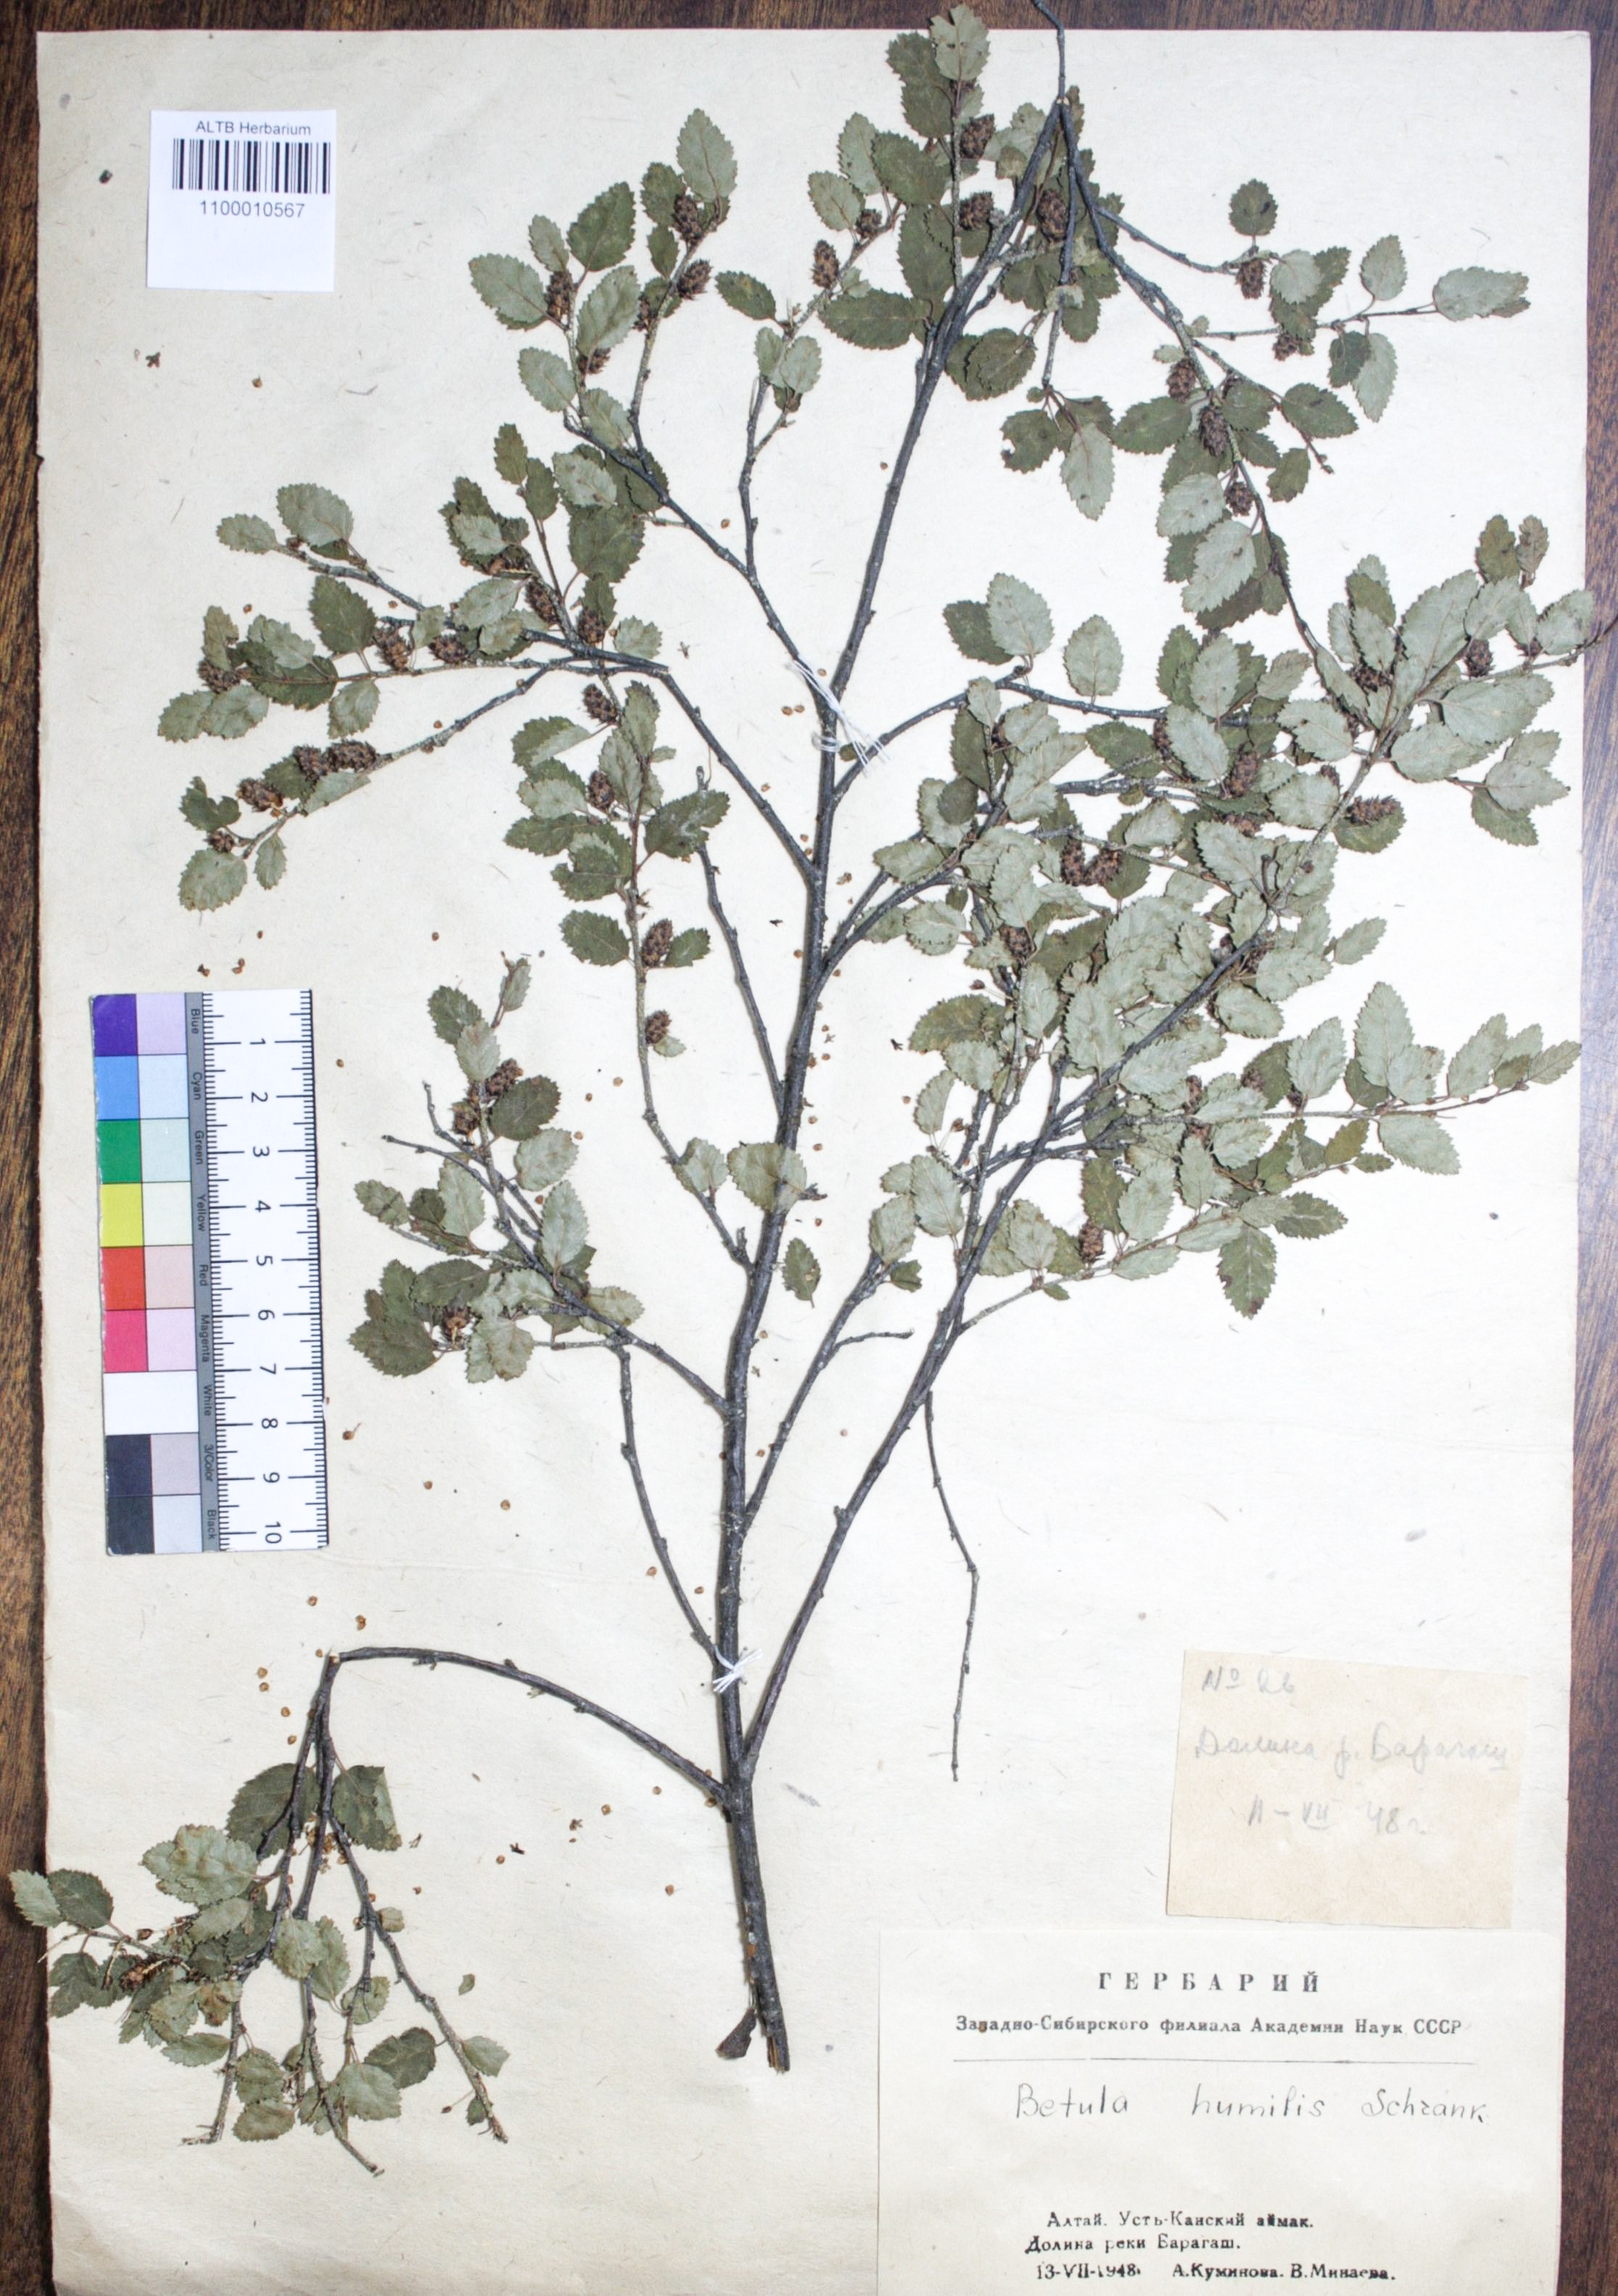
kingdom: Plantae
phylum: Tracheophyta
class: Magnoliopsida
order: Fagales
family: Betulaceae
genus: Betula
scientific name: Betula humilis
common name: Shrubby birch
